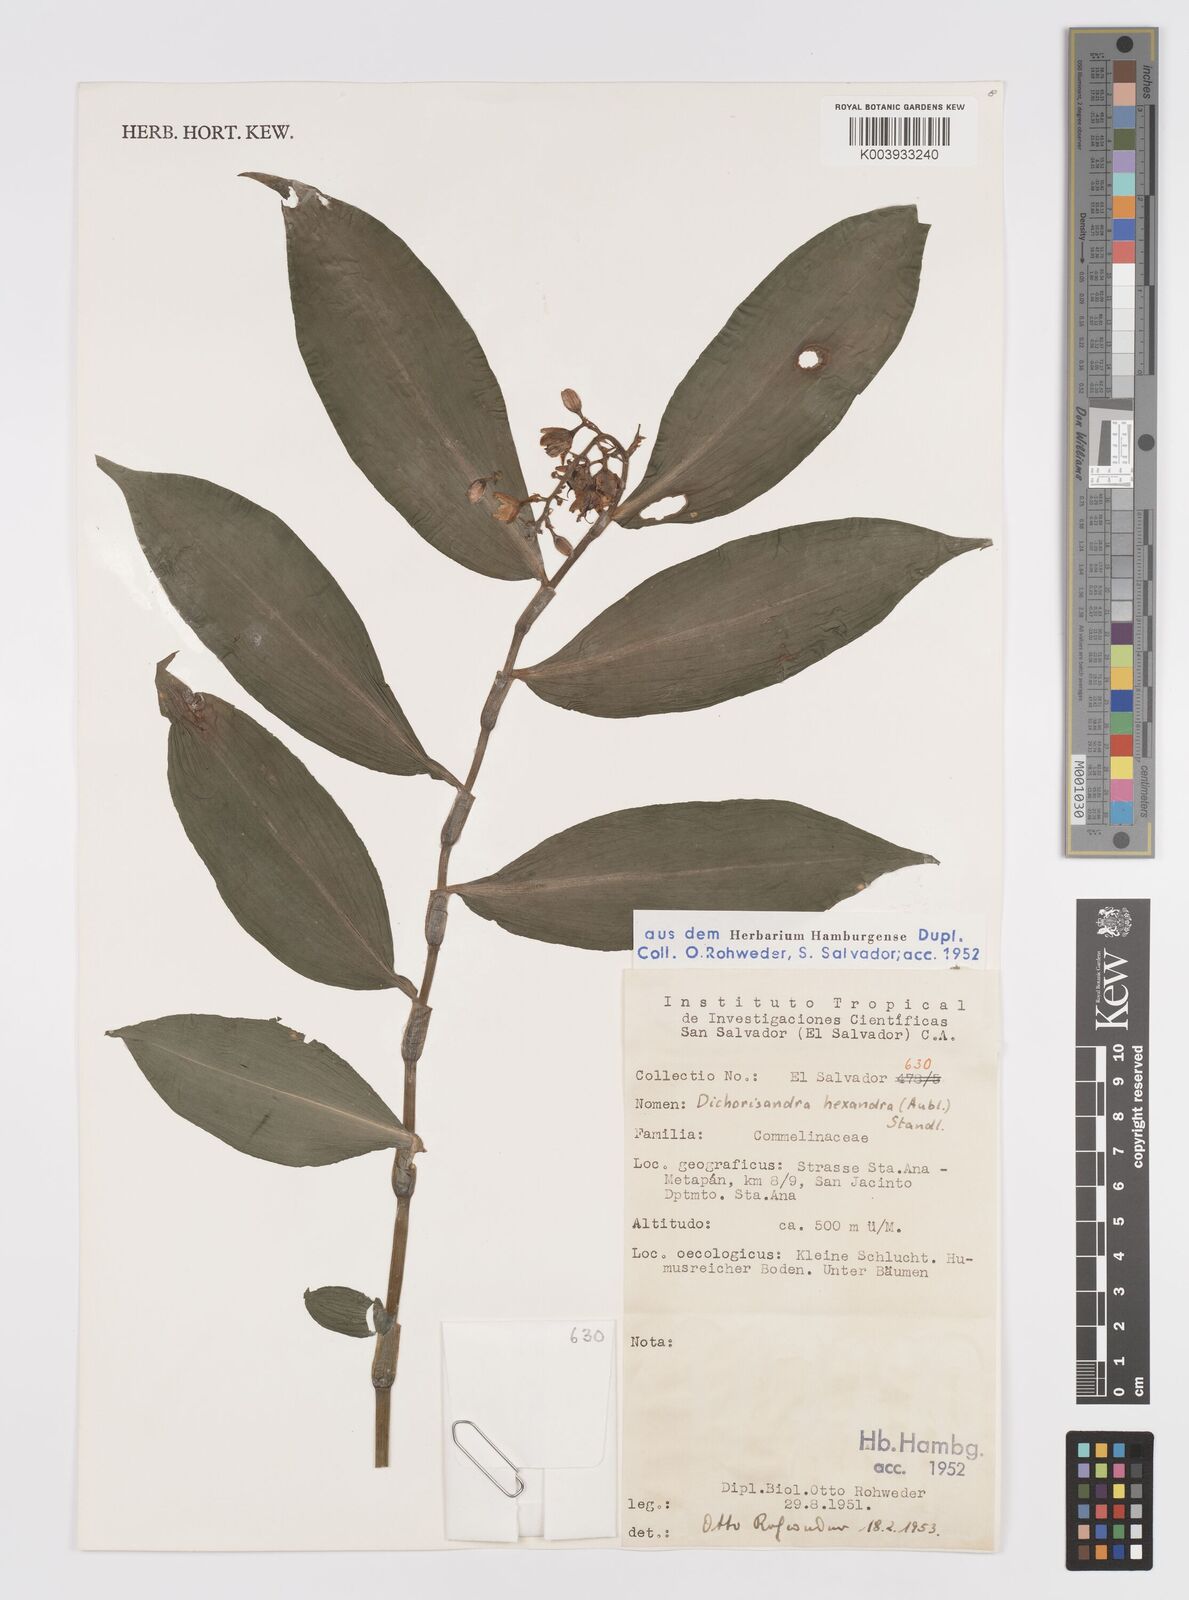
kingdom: Plantae
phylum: Tracheophyta
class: Liliopsida
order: Commelinales
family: Commelinaceae
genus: Dichorisandra
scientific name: Dichorisandra hexandra
